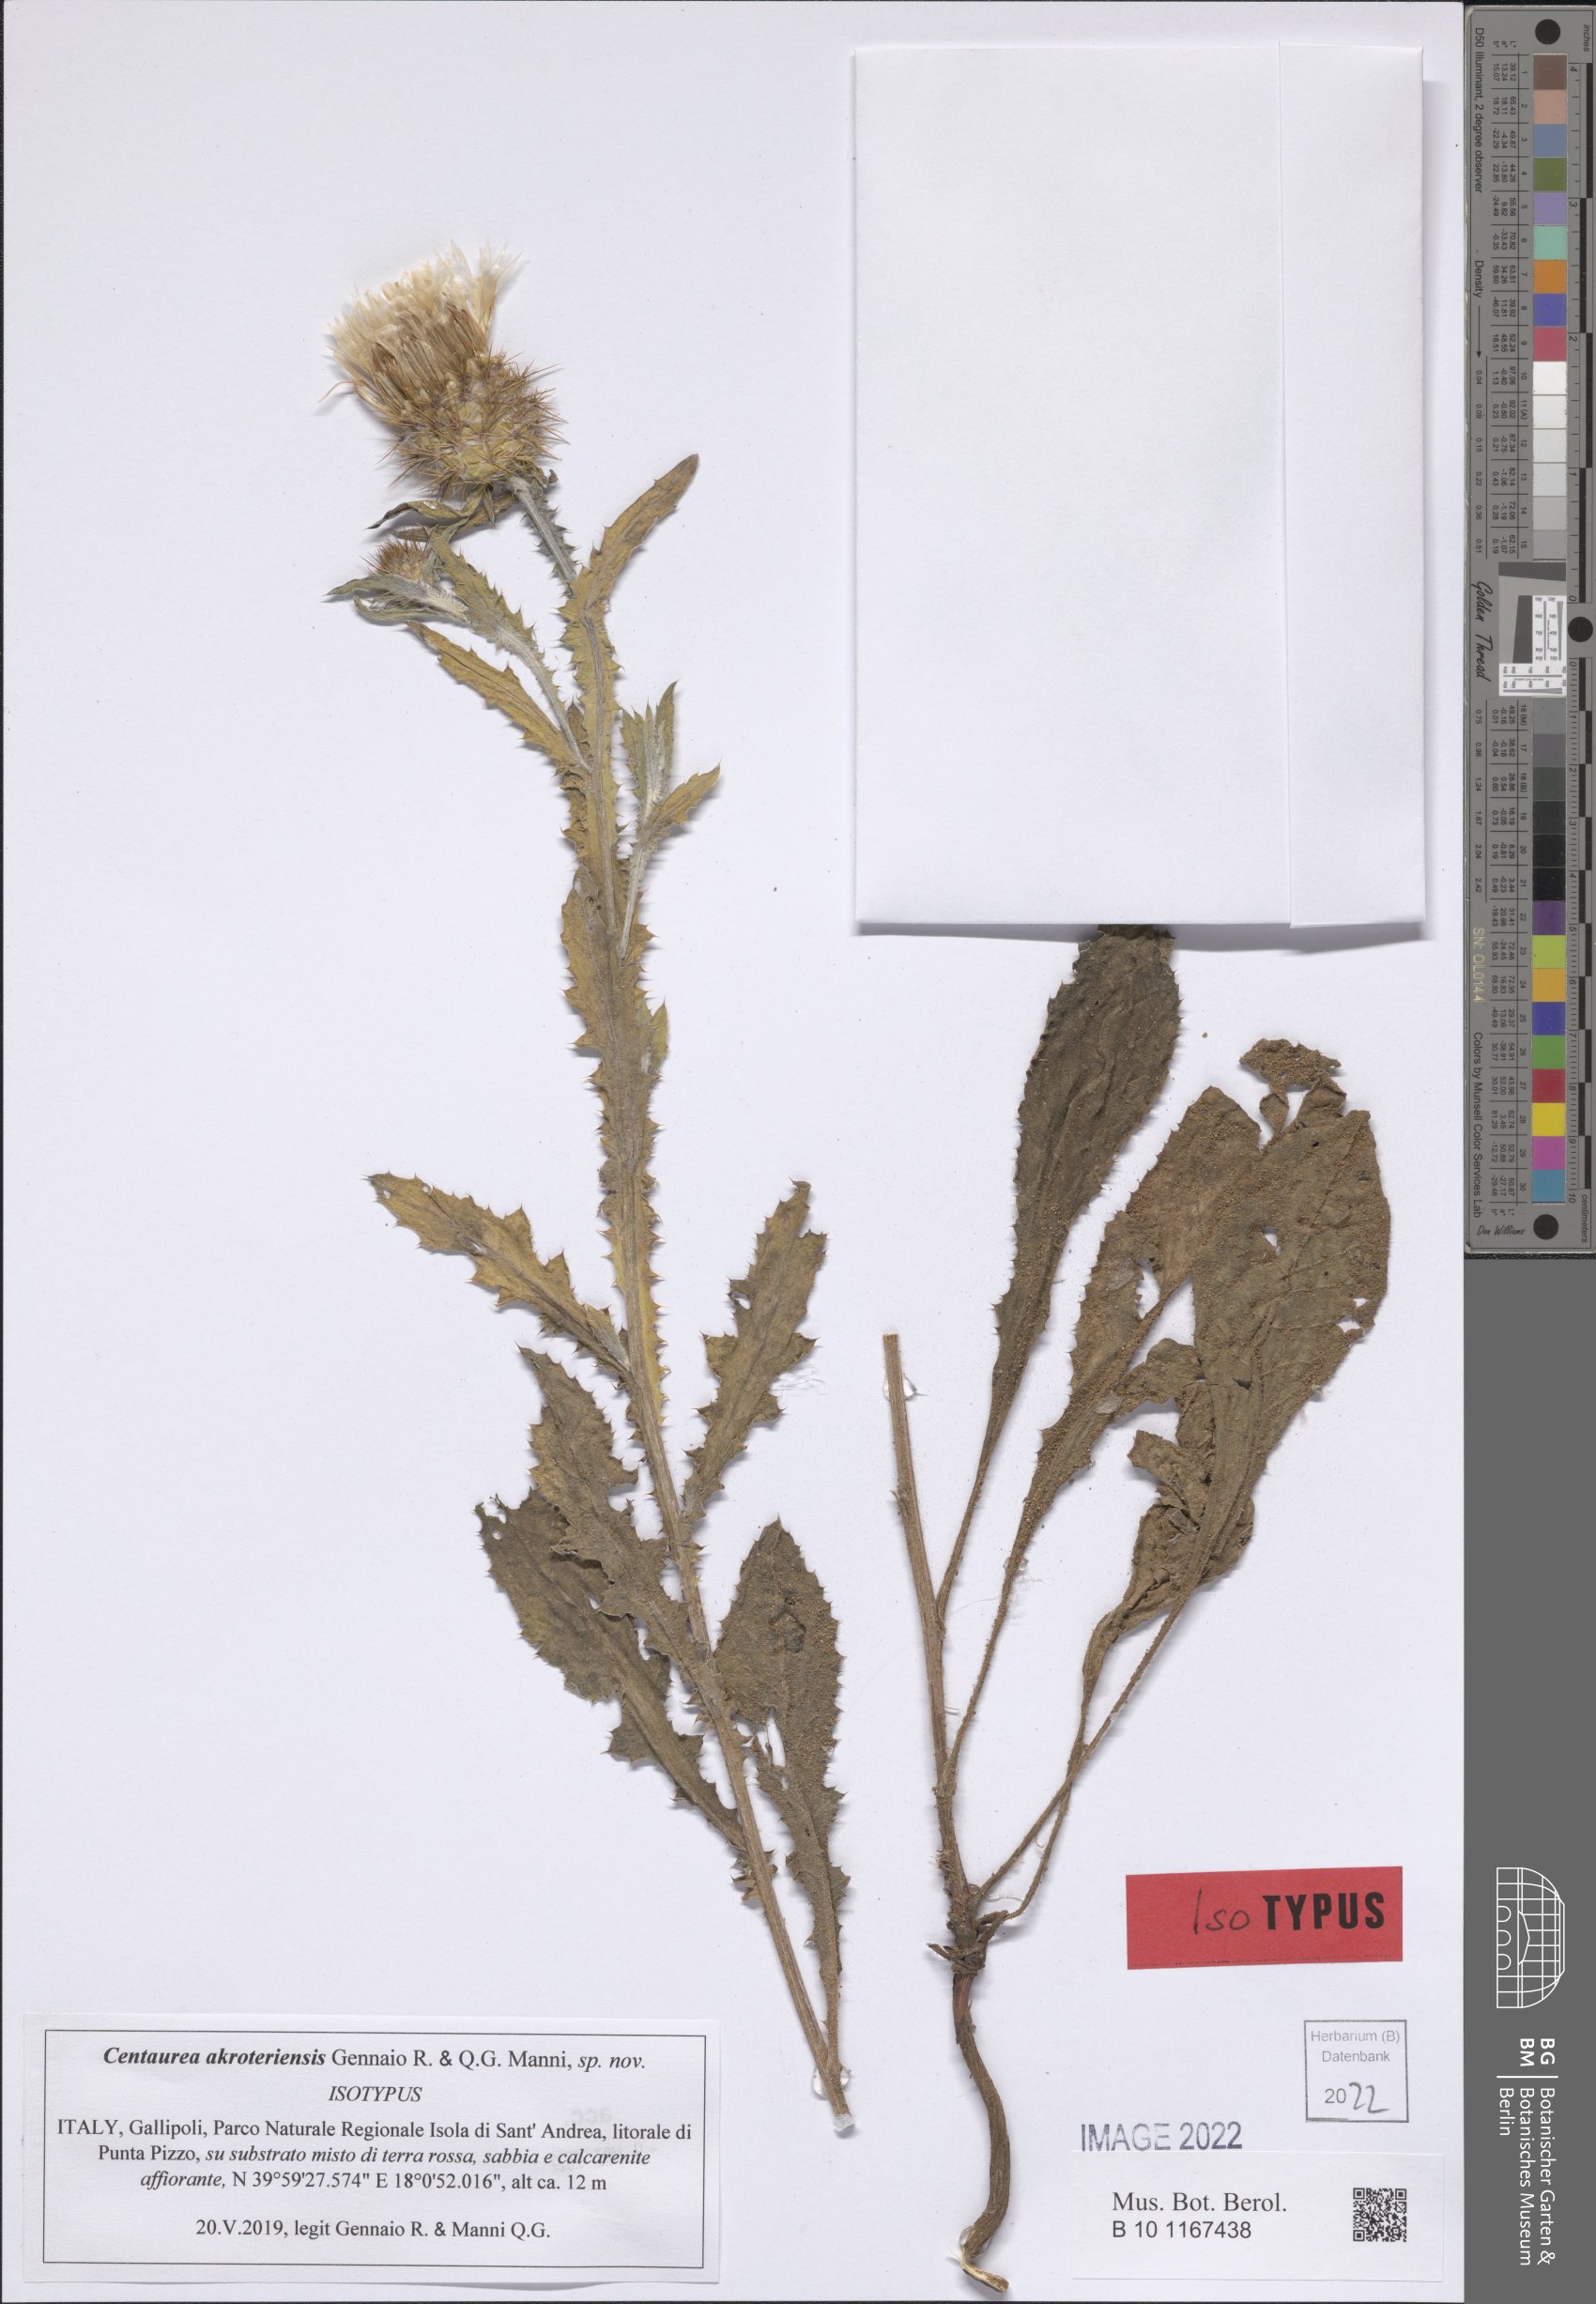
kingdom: Plantae
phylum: Tracheophyta
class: Magnoliopsida
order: Asterales
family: Asteraceae
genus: Centaurea
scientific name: Centaurea akroteriensis
